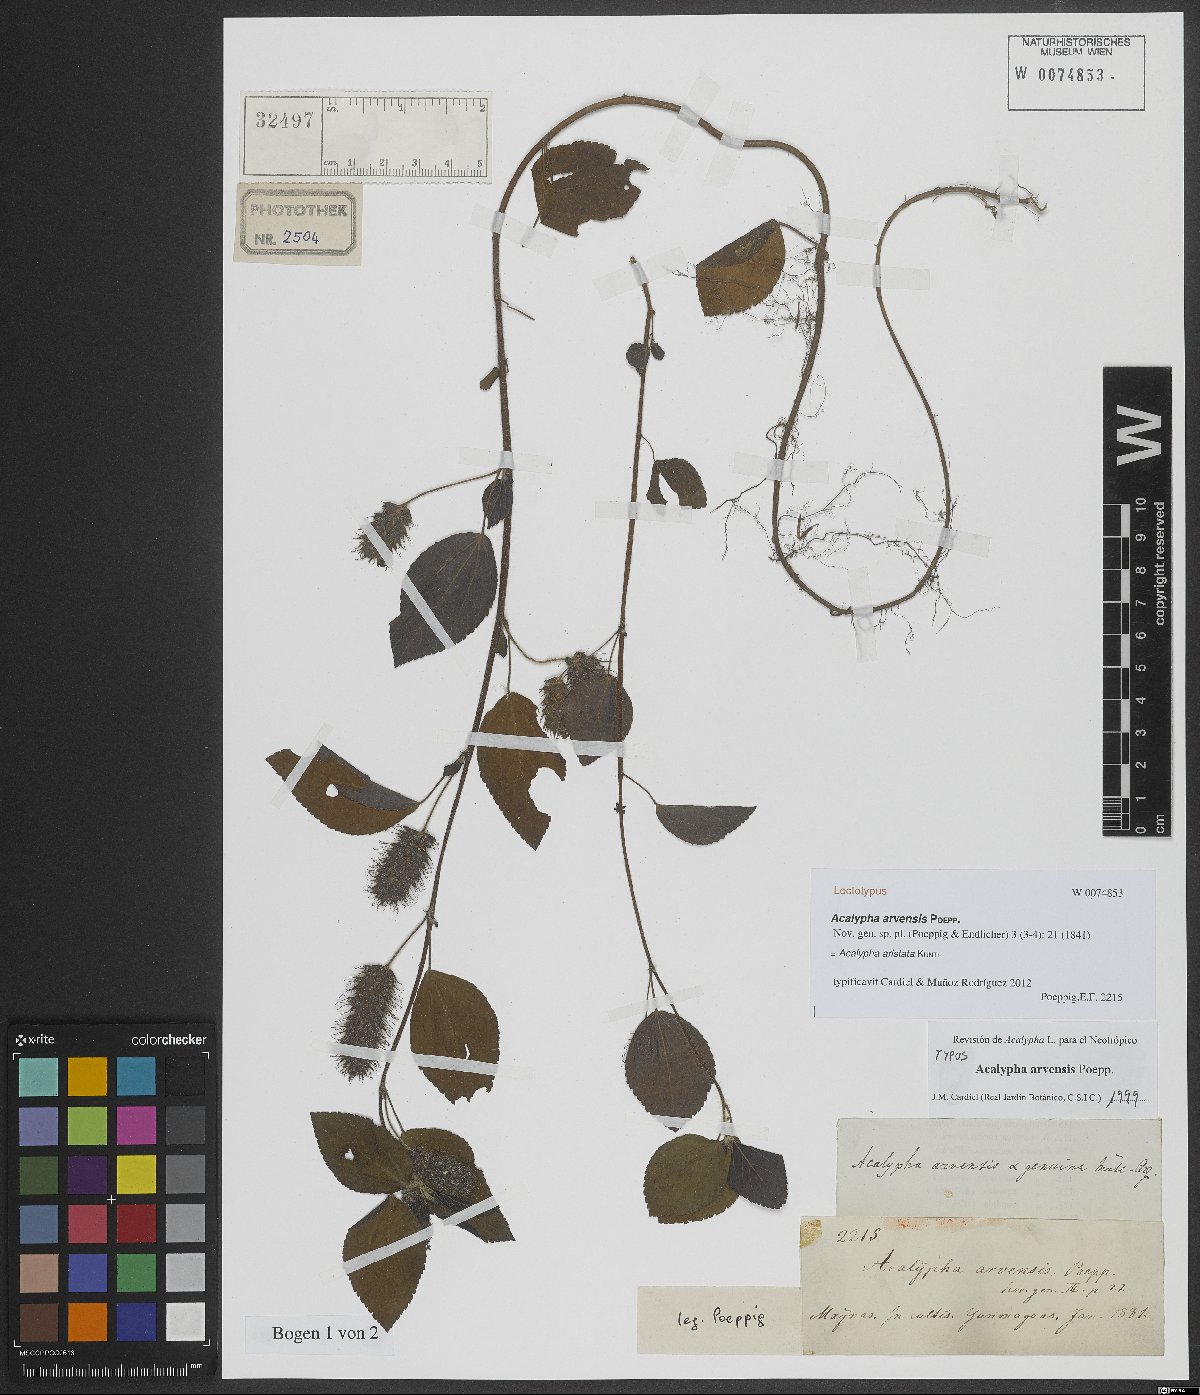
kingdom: Plantae
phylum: Tracheophyta
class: Magnoliopsida
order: Malpighiales
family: Euphorbiaceae
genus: Acalypha
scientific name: Acalypha alopecuroidea
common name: Foxtail copperleaf
